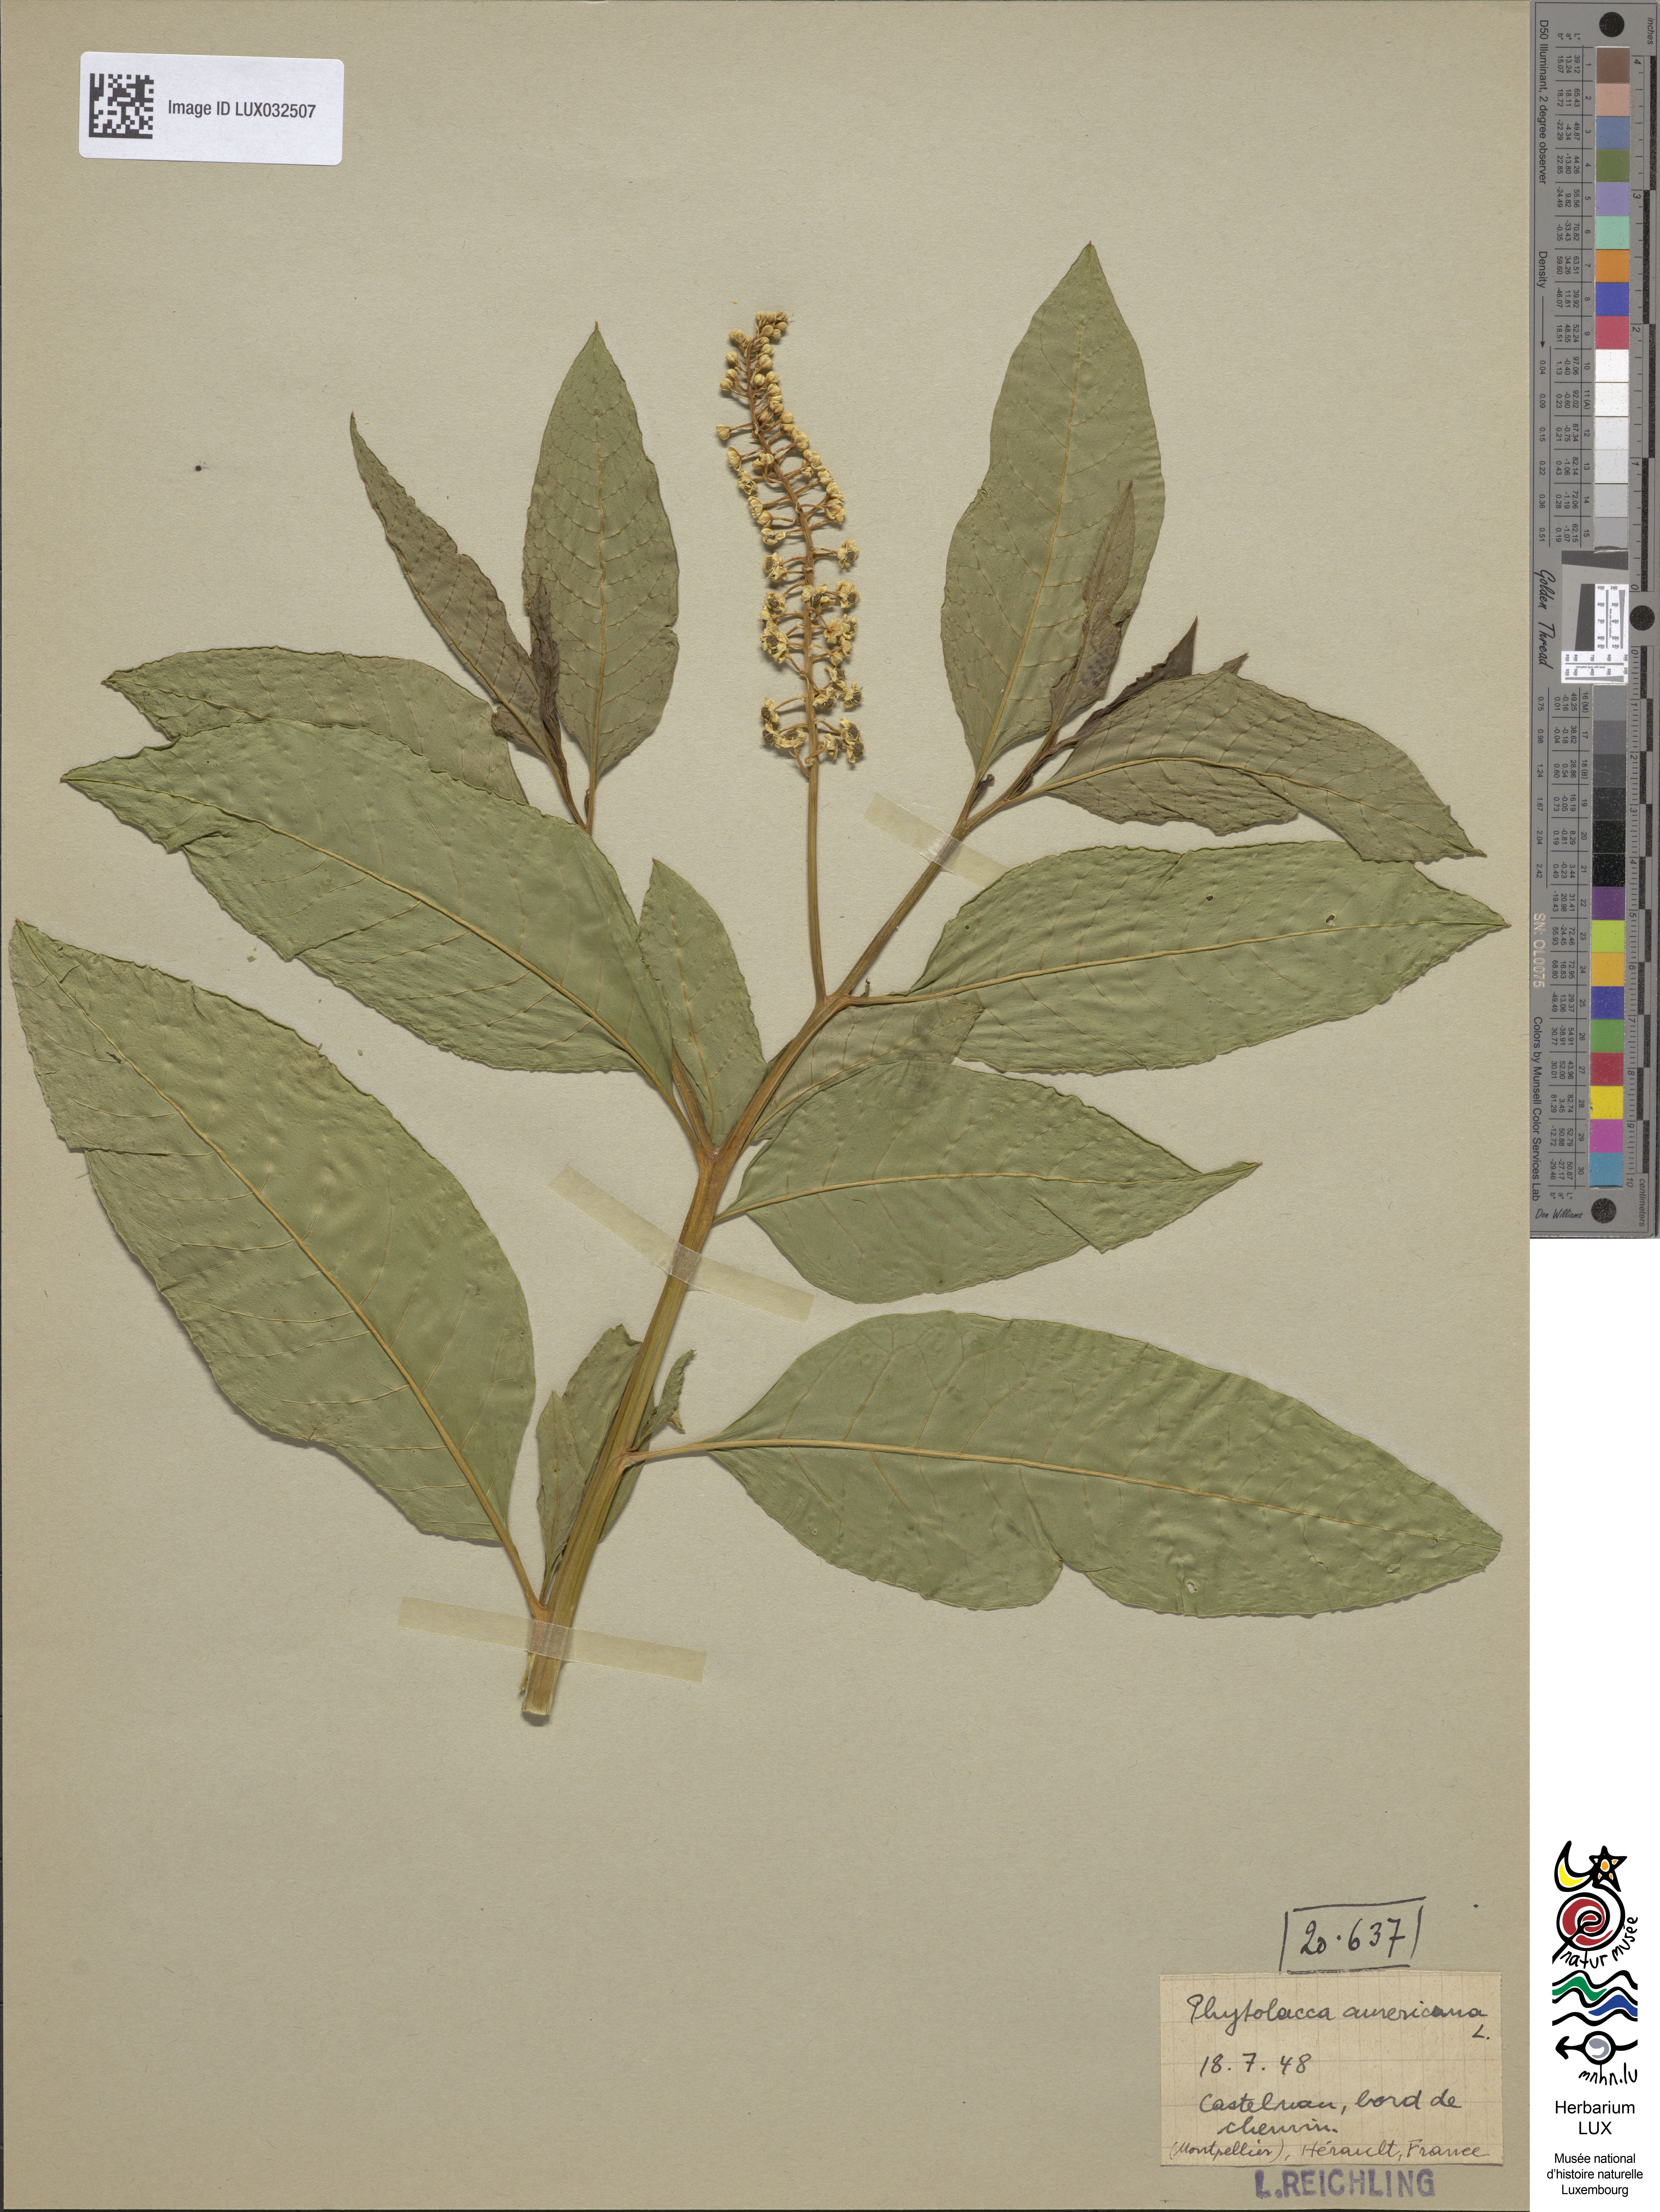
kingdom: Plantae
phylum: Tracheophyta
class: Magnoliopsida
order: Caryophyllales
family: Phytolaccaceae
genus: Phytolacca
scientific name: Phytolacca americana
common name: American pokeweed
